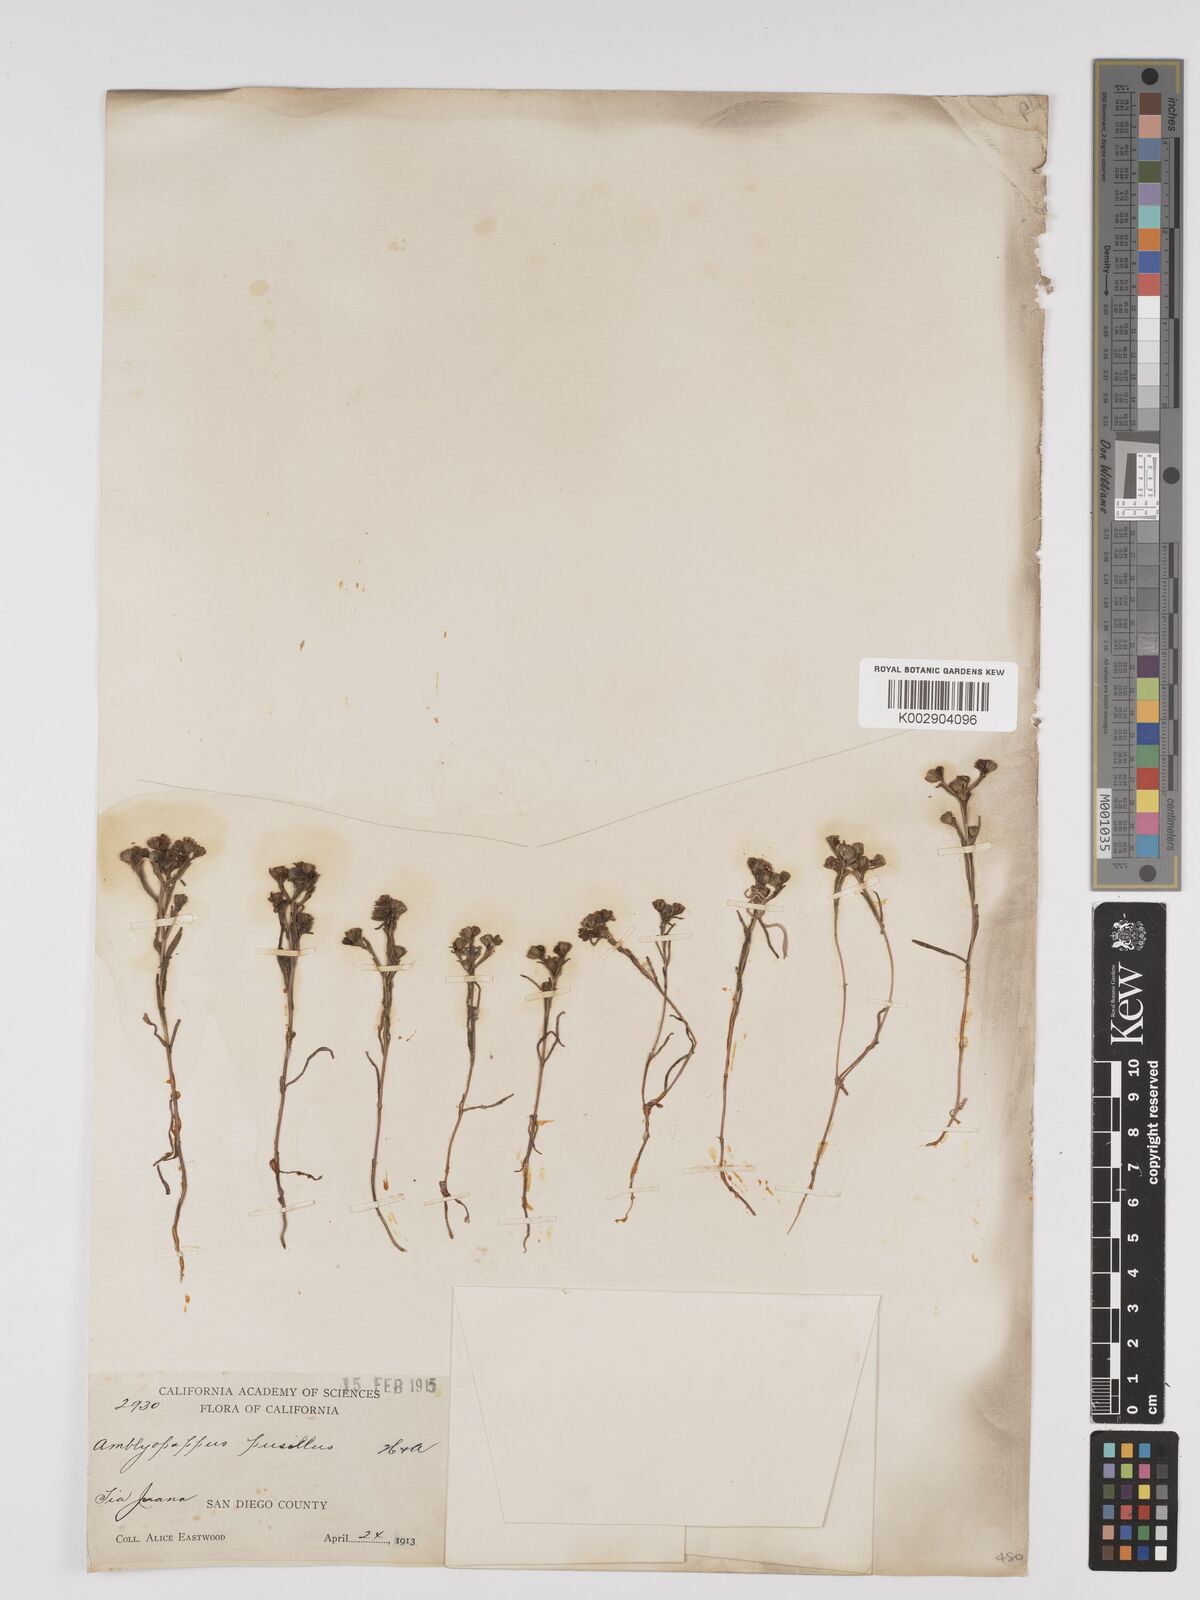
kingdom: Plantae
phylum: Tracheophyta
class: Magnoliopsida
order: Asterales
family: Asteraceae
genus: Amblyopappus
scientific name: Amblyopappus pusillus
